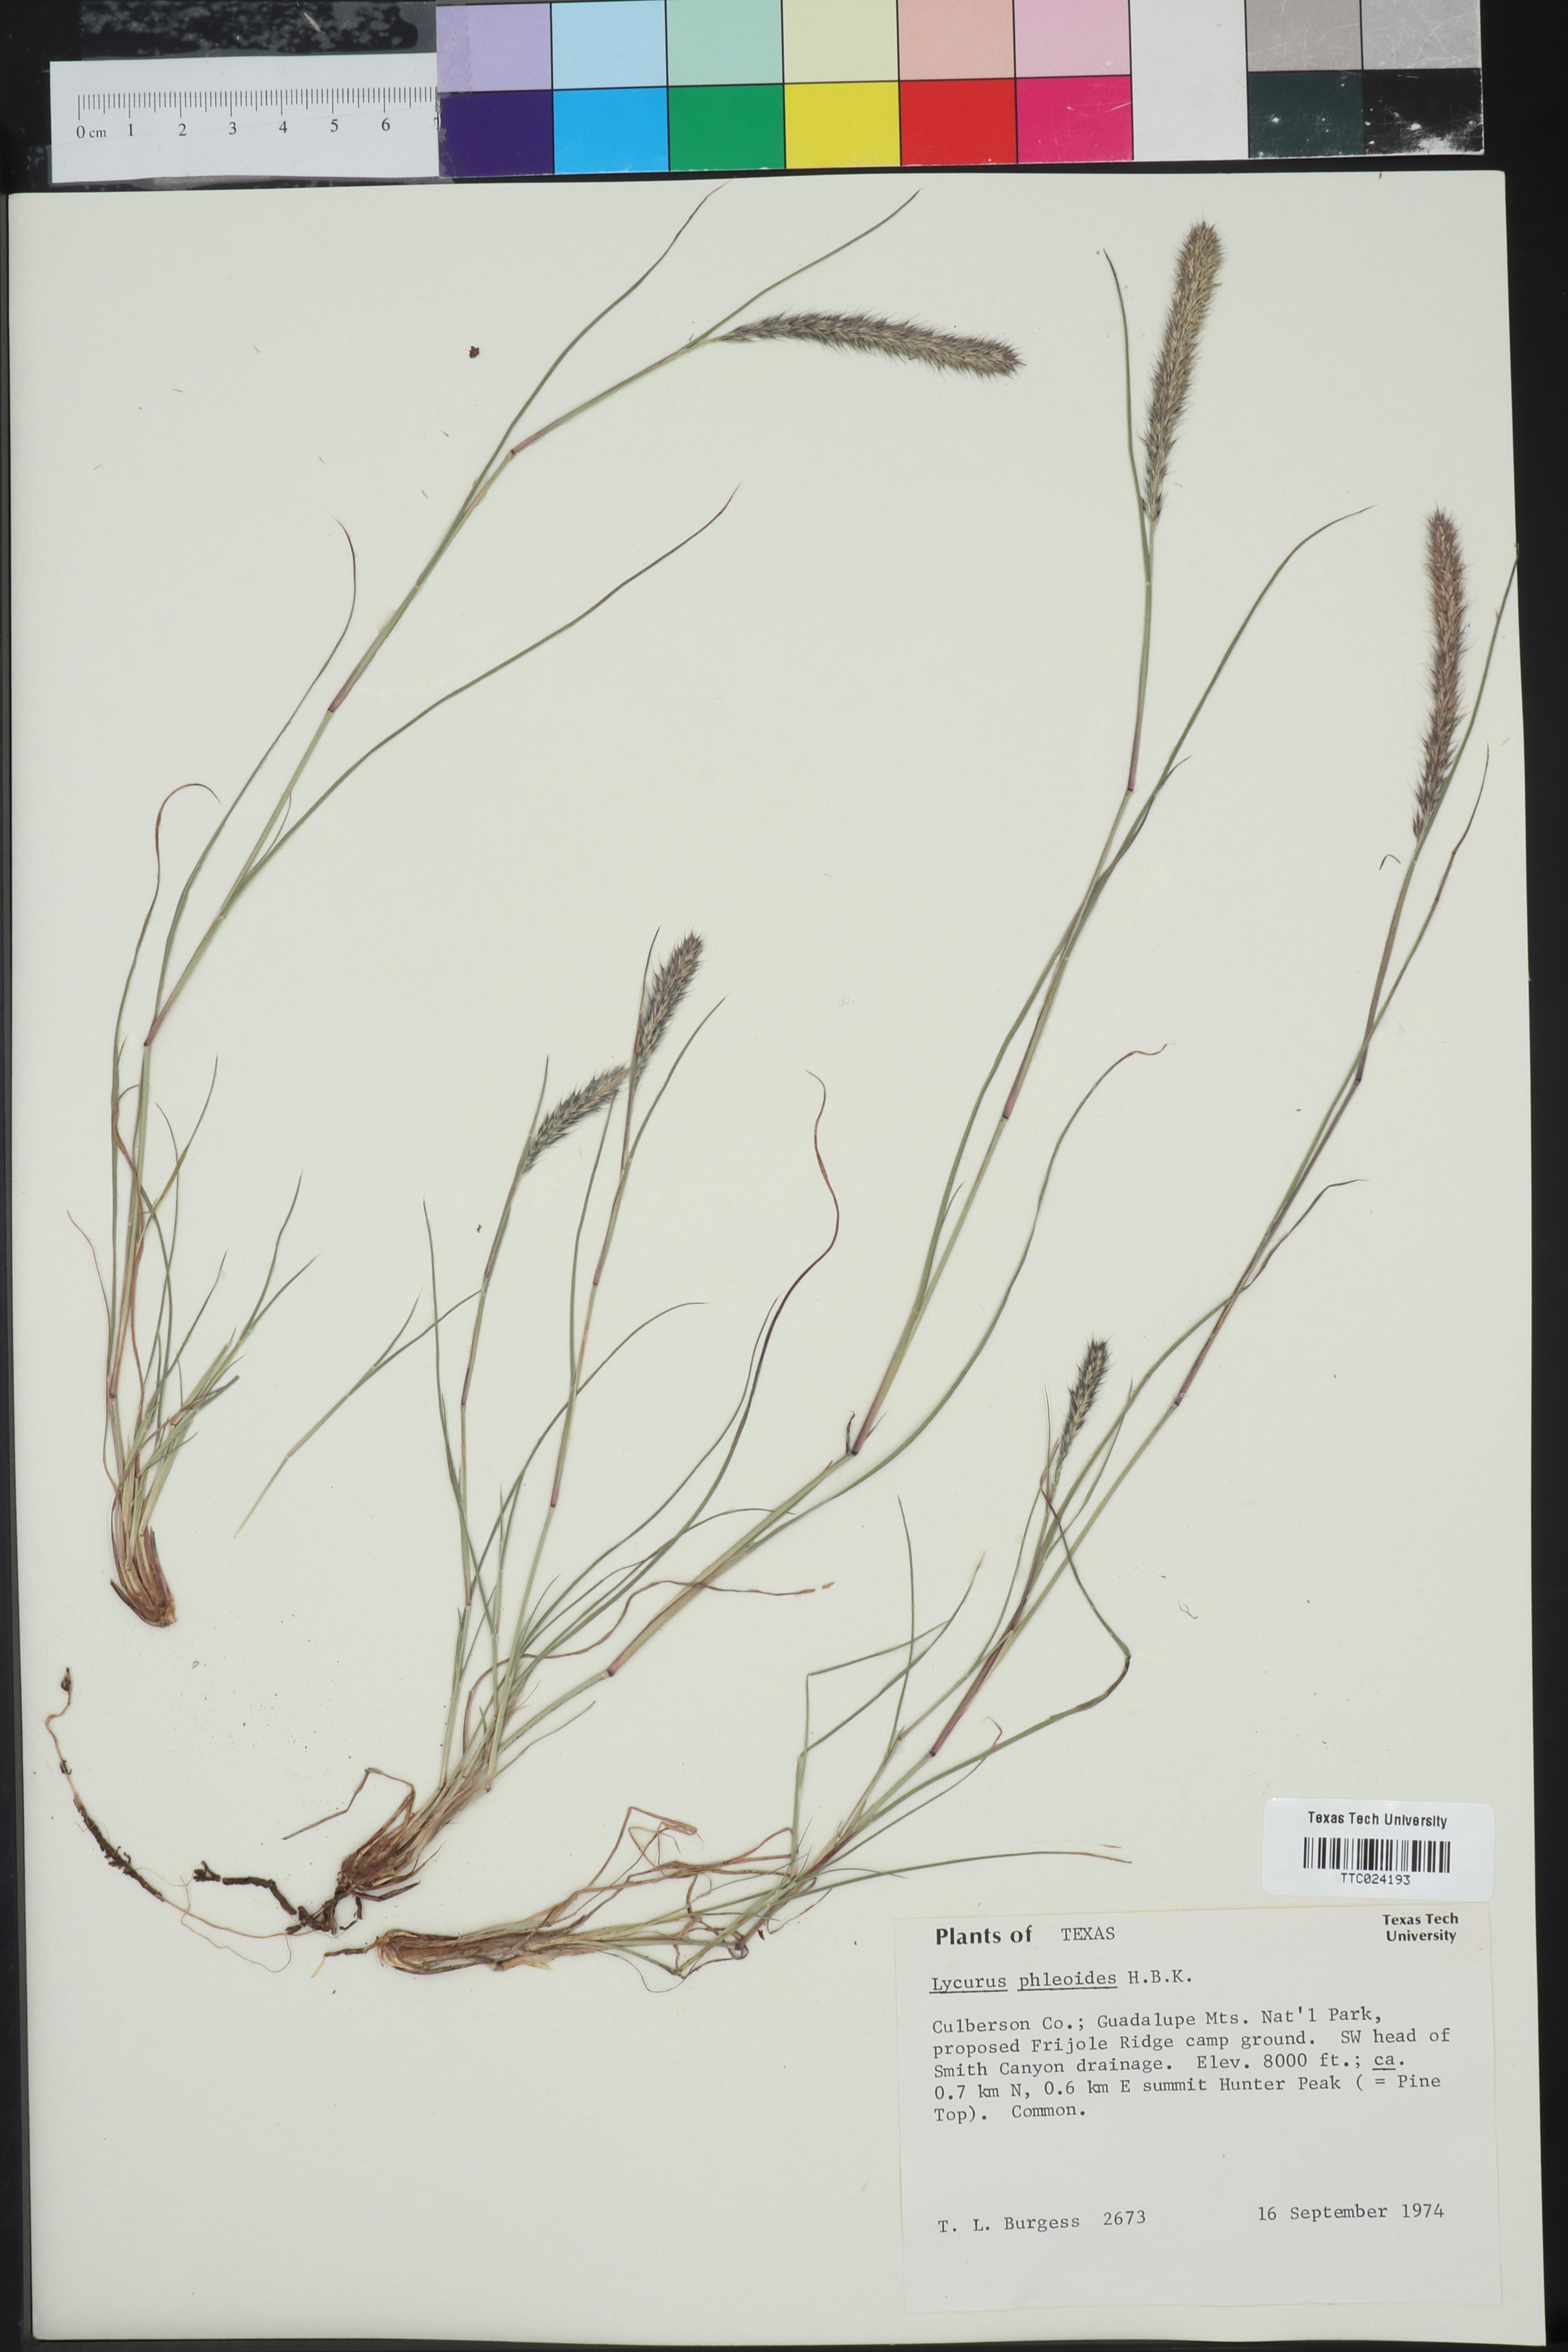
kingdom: Plantae
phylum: Tracheophyta
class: Liliopsida
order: Poales
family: Poaceae
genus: Muhlenbergia
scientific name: Muhlenbergia phleoides
